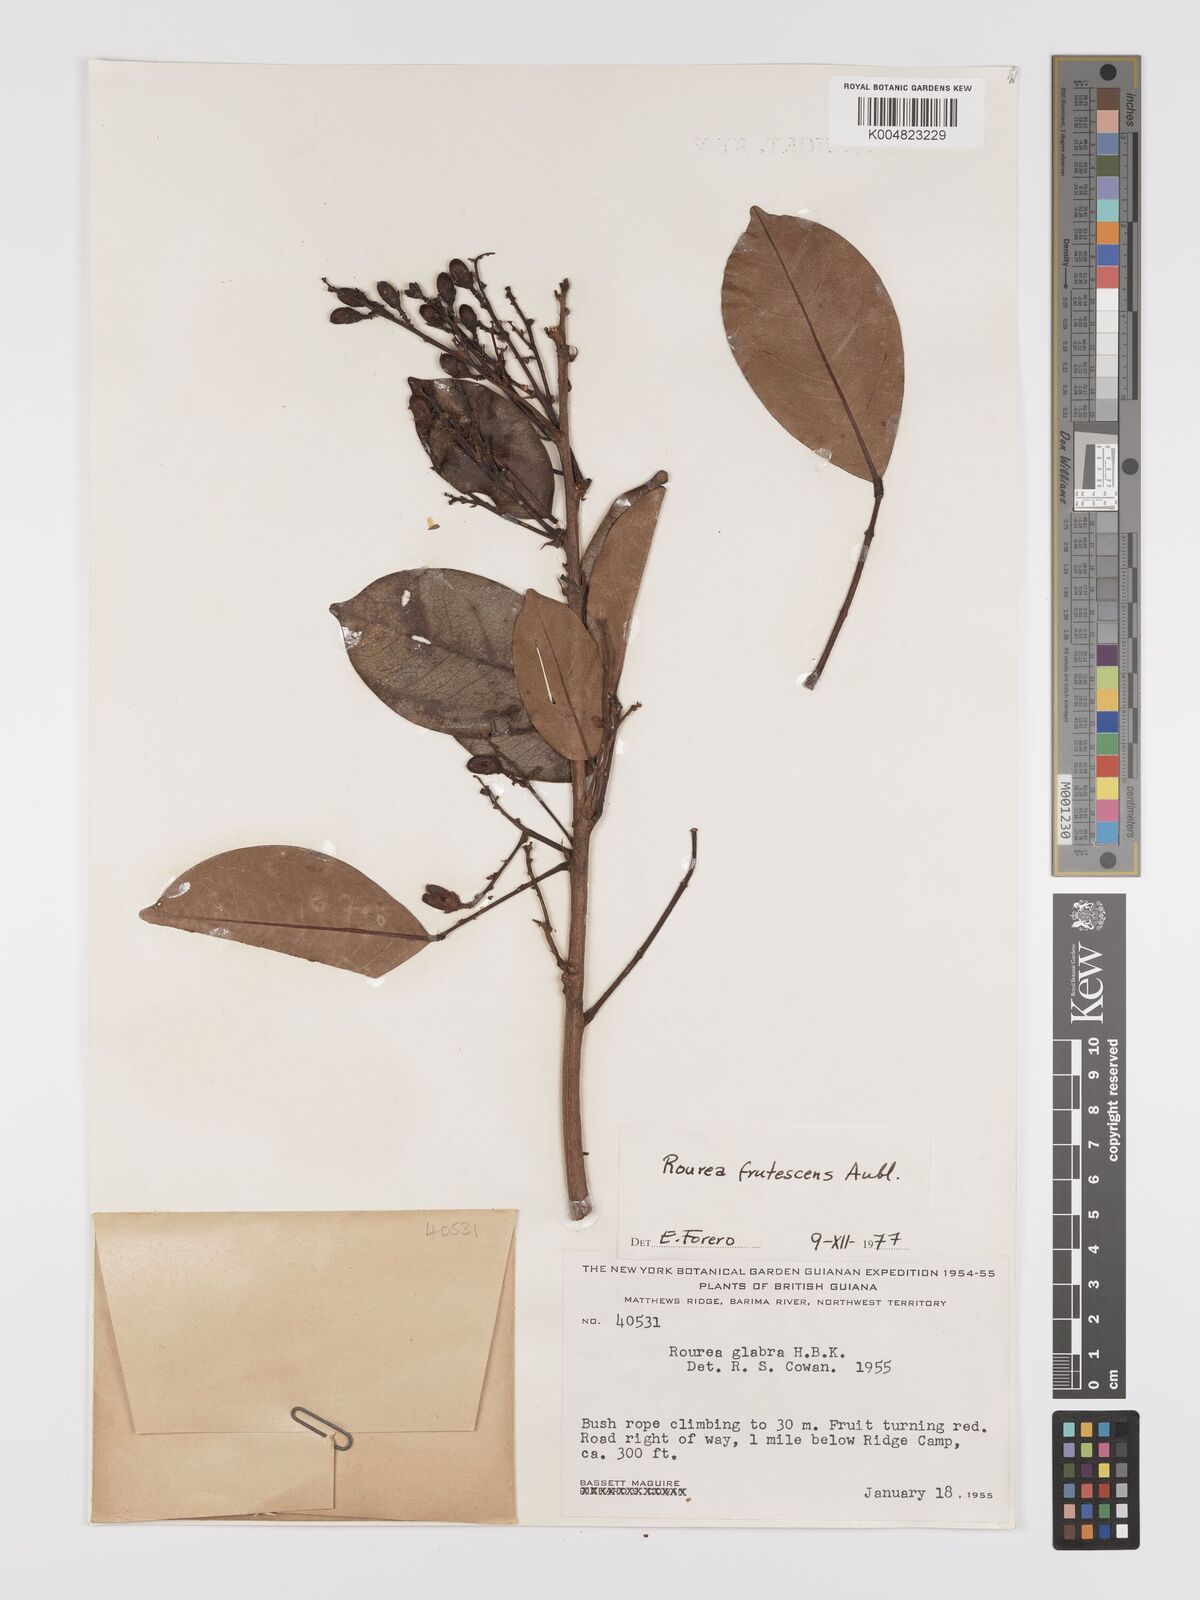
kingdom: Plantae
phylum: Tracheophyta
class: Magnoliopsida
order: Oxalidales
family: Connaraceae
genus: Rourea
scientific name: Rourea frutescens
